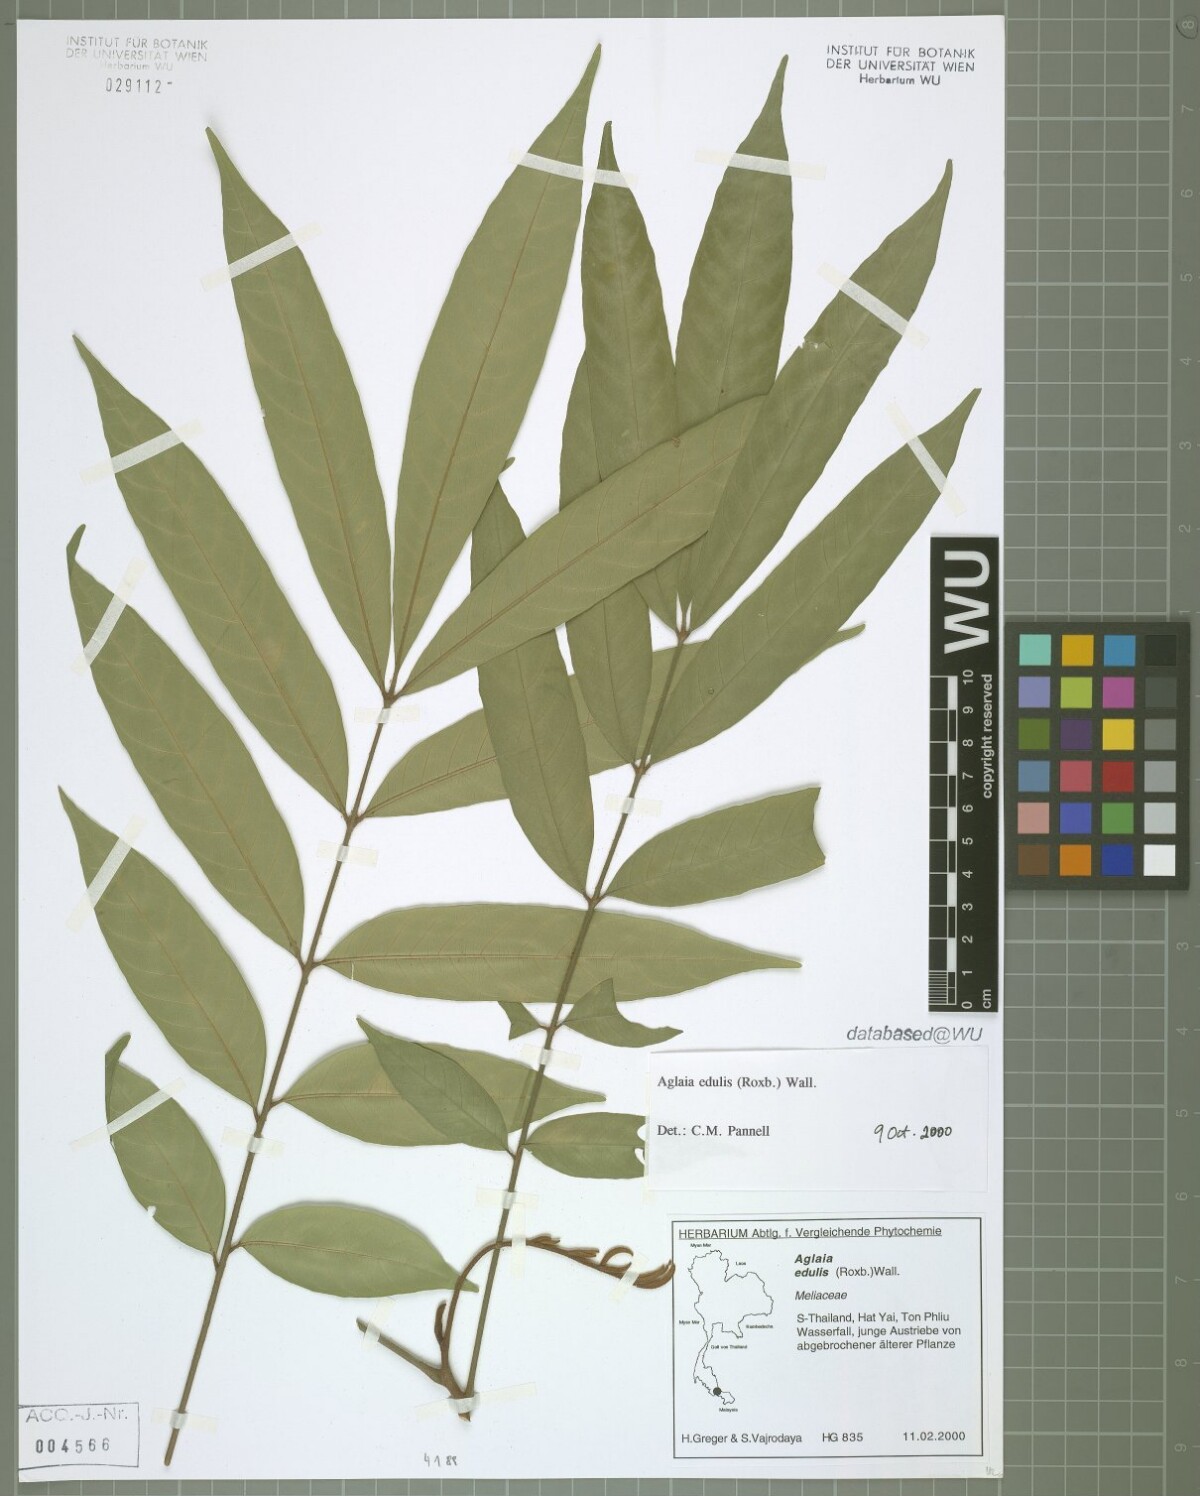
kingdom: Plantae
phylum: Tracheophyta
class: Magnoliopsida
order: Sapindales
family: Meliaceae
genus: Aglaia
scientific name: Aglaia edulis
